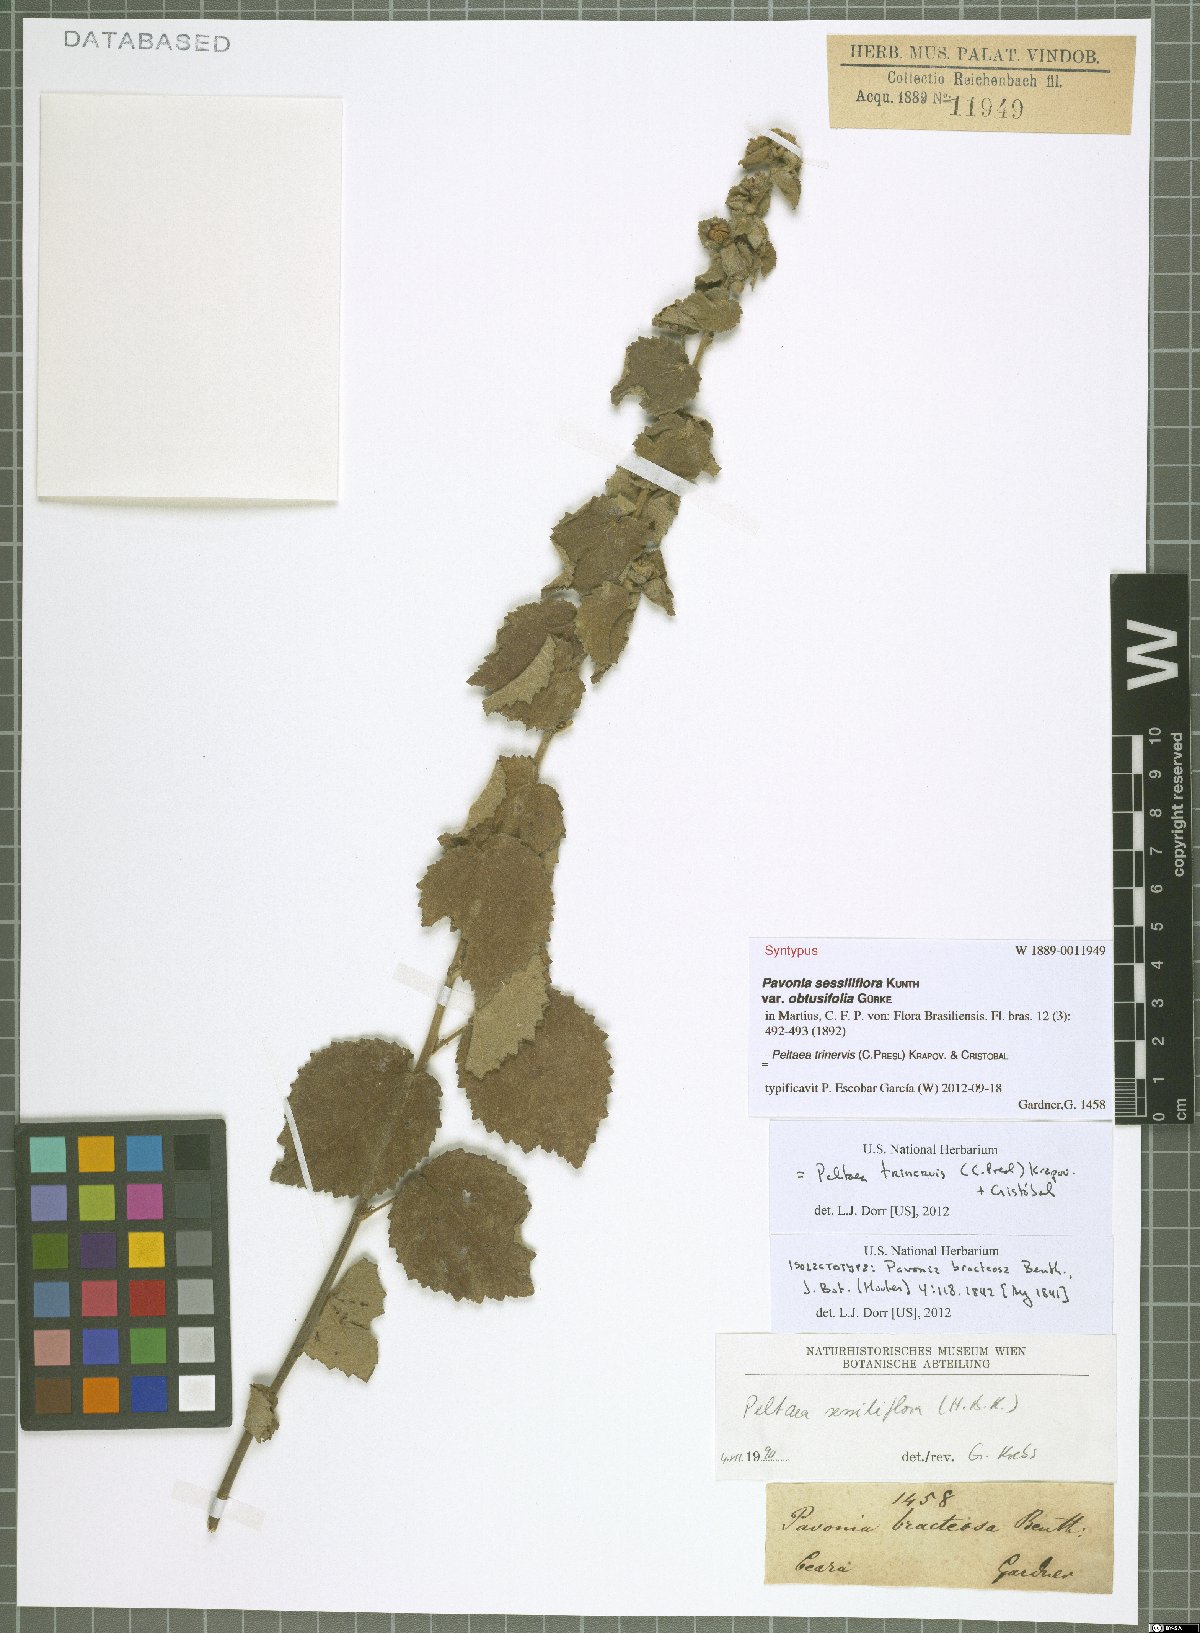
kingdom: Plantae
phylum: Tracheophyta
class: Magnoliopsida
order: Malvales
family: Malvaceae
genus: Peltaea
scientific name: Peltaea trinervis
